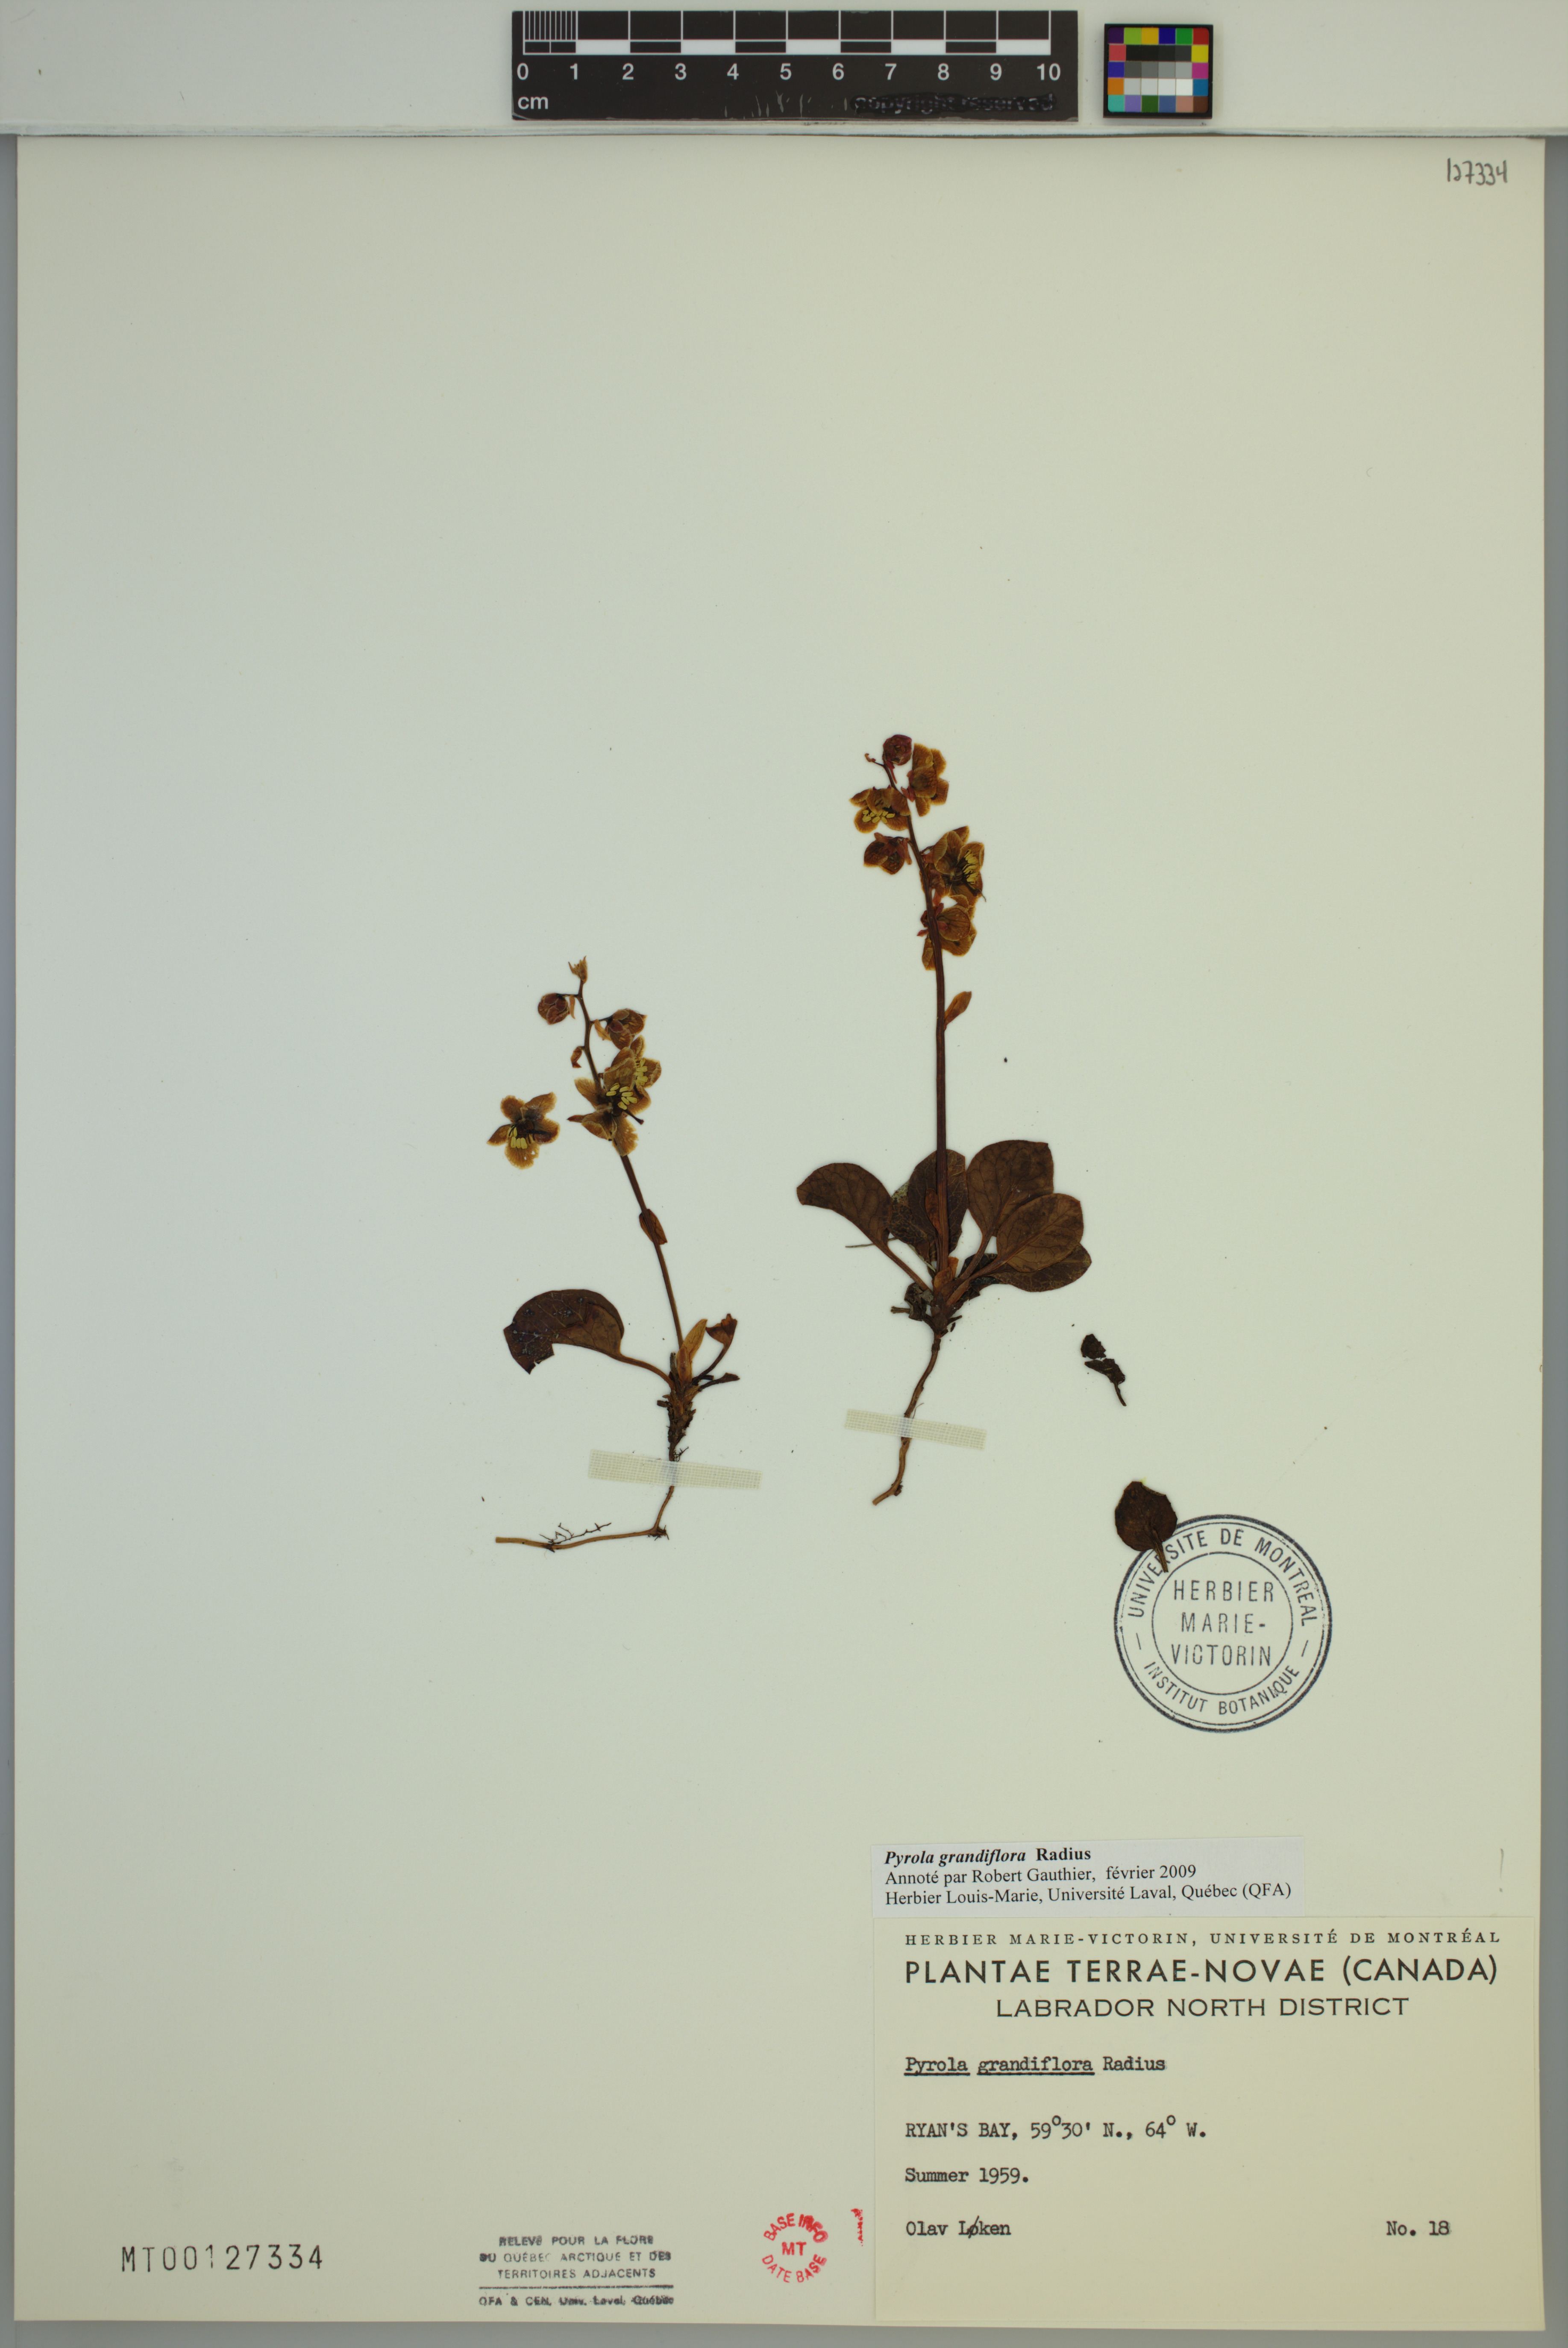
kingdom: Plantae
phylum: Tracheophyta
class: Magnoliopsida
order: Ericales
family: Ericaceae
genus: Pyrola
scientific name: Pyrola grandiflora
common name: Arctic pyrola
